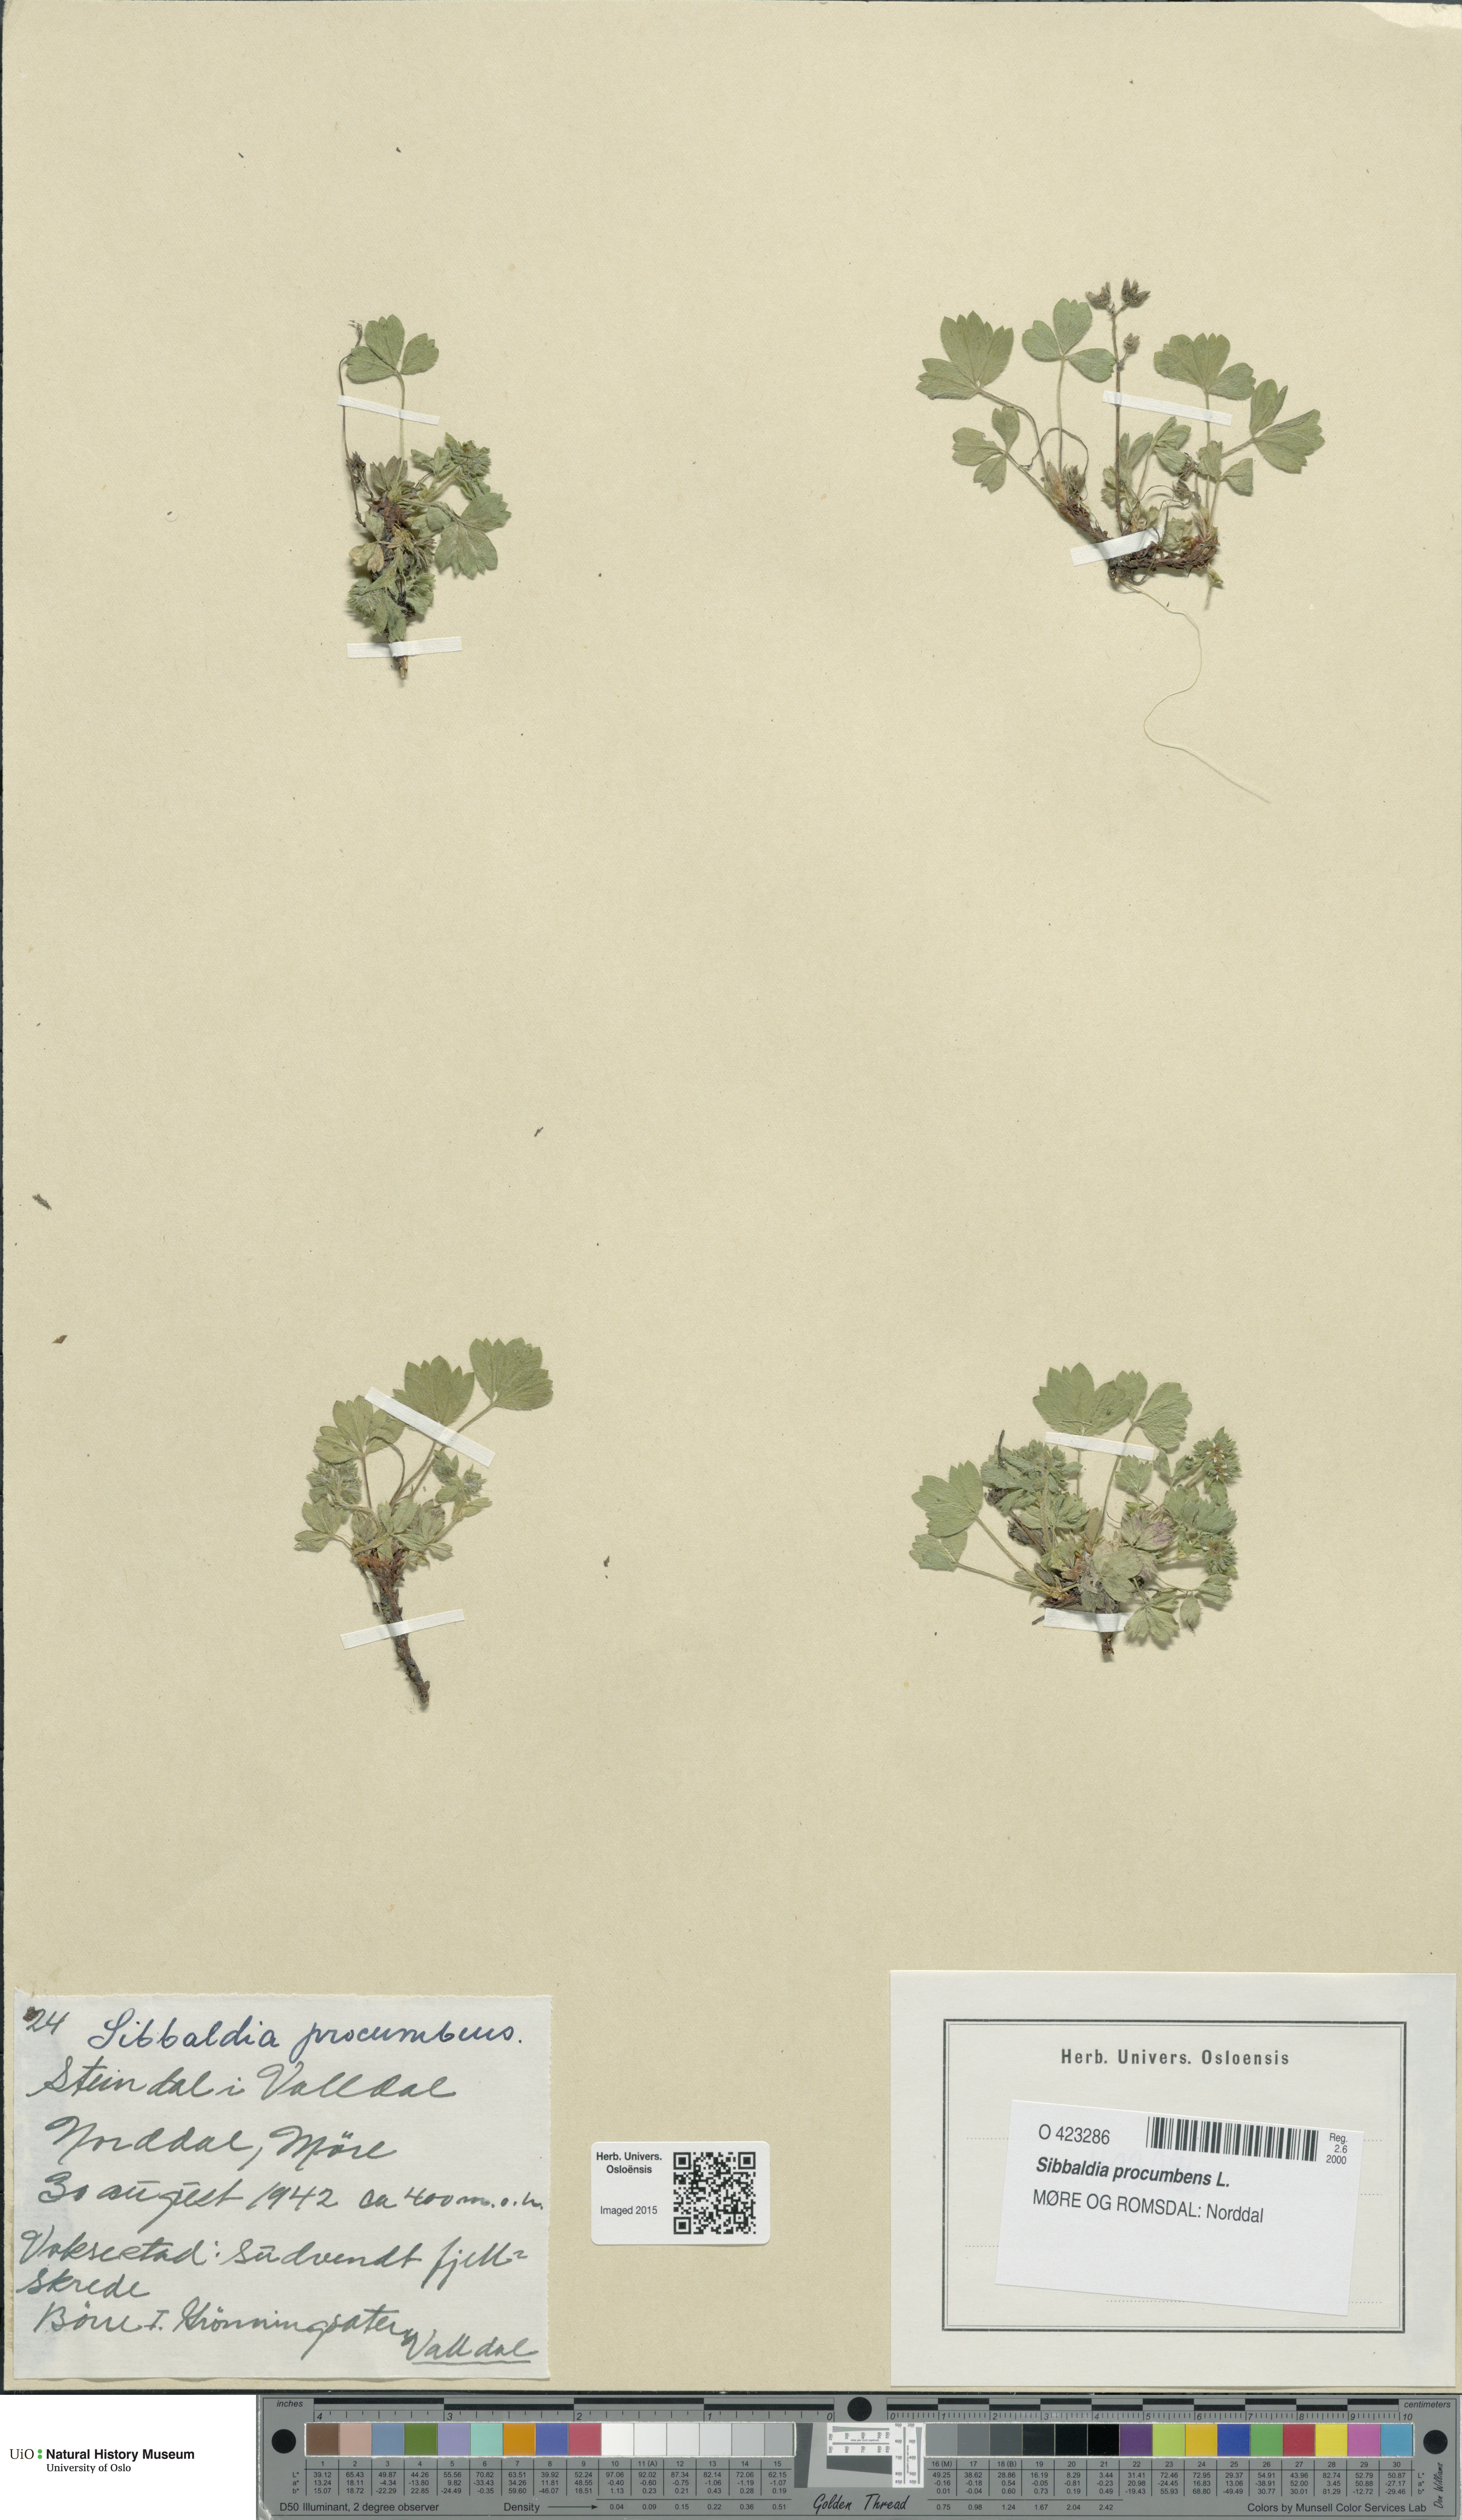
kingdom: Plantae
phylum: Tracheophyta
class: Magnoliopsida
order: Rosales
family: Rosaceae
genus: Sibbaldia
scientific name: Sibbaldia procumbens
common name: Creeping sibbaldia
